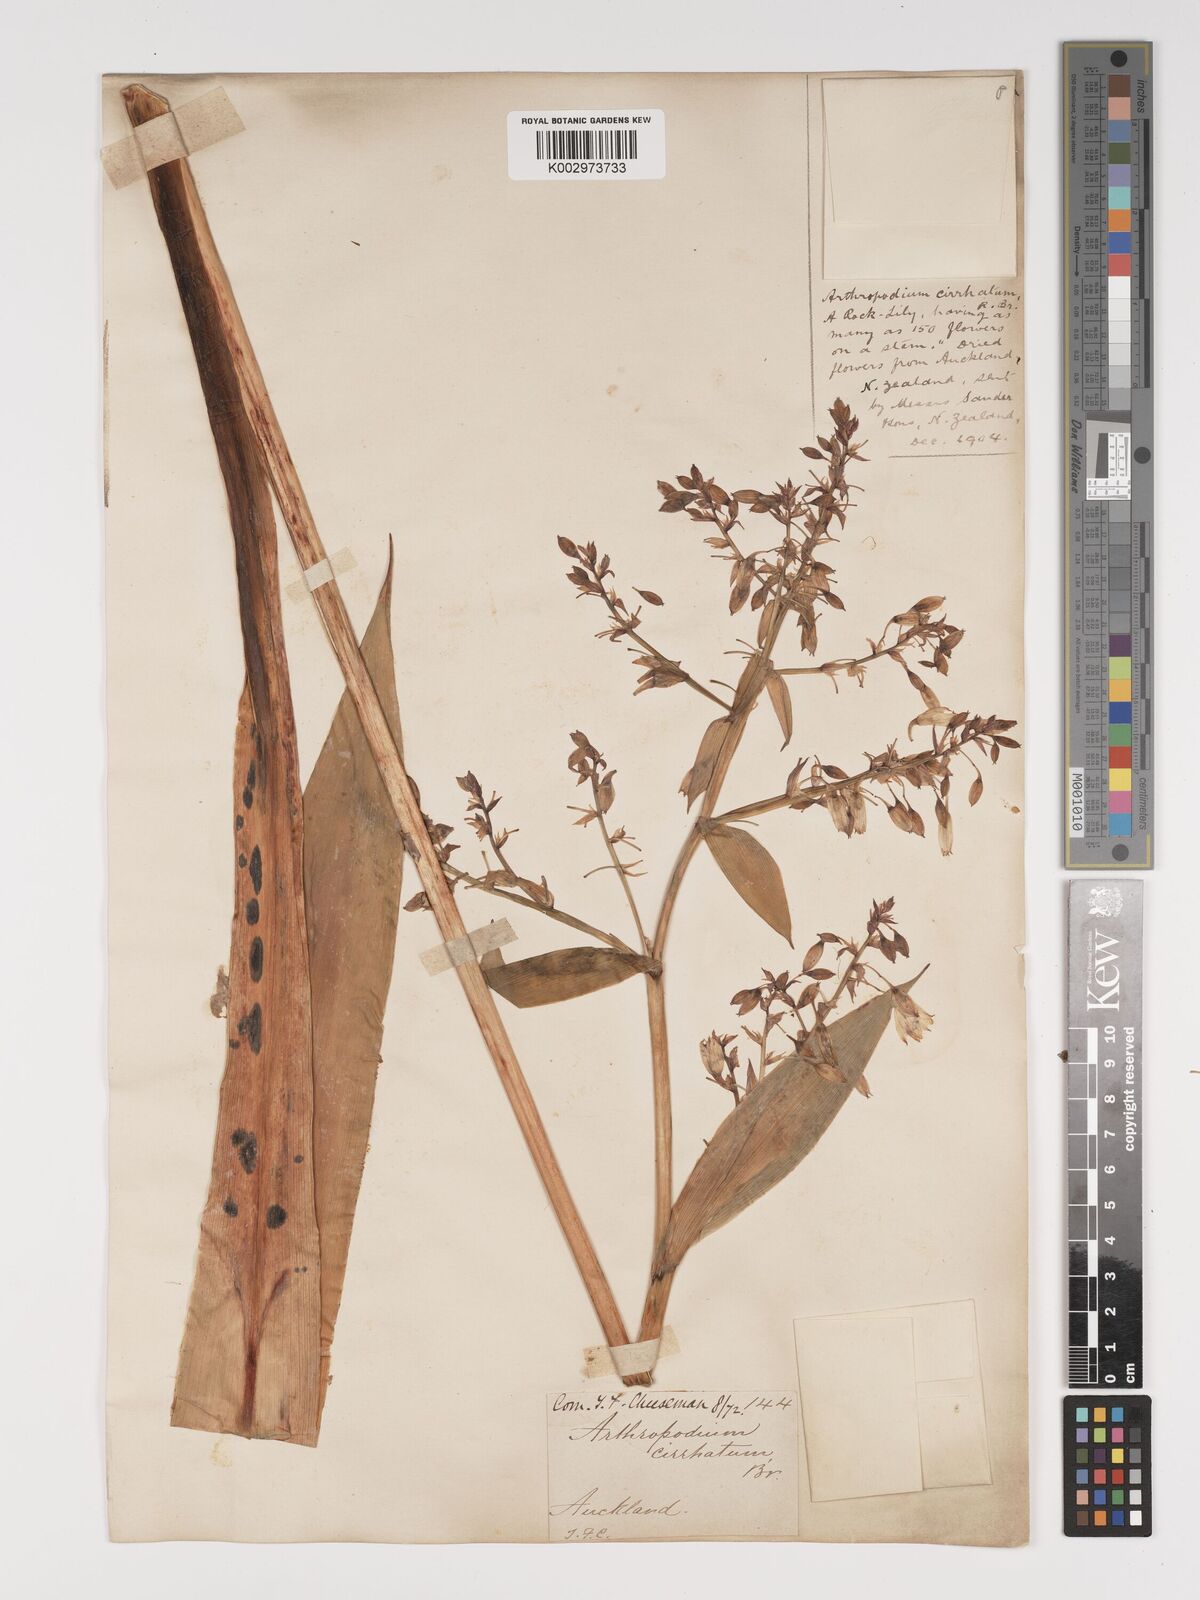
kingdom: Plantae
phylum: Tracheophyta
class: Liliopsida
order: Asparagales
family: Asparagaceae
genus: Arthropodium
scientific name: Arthropodium cirratum
